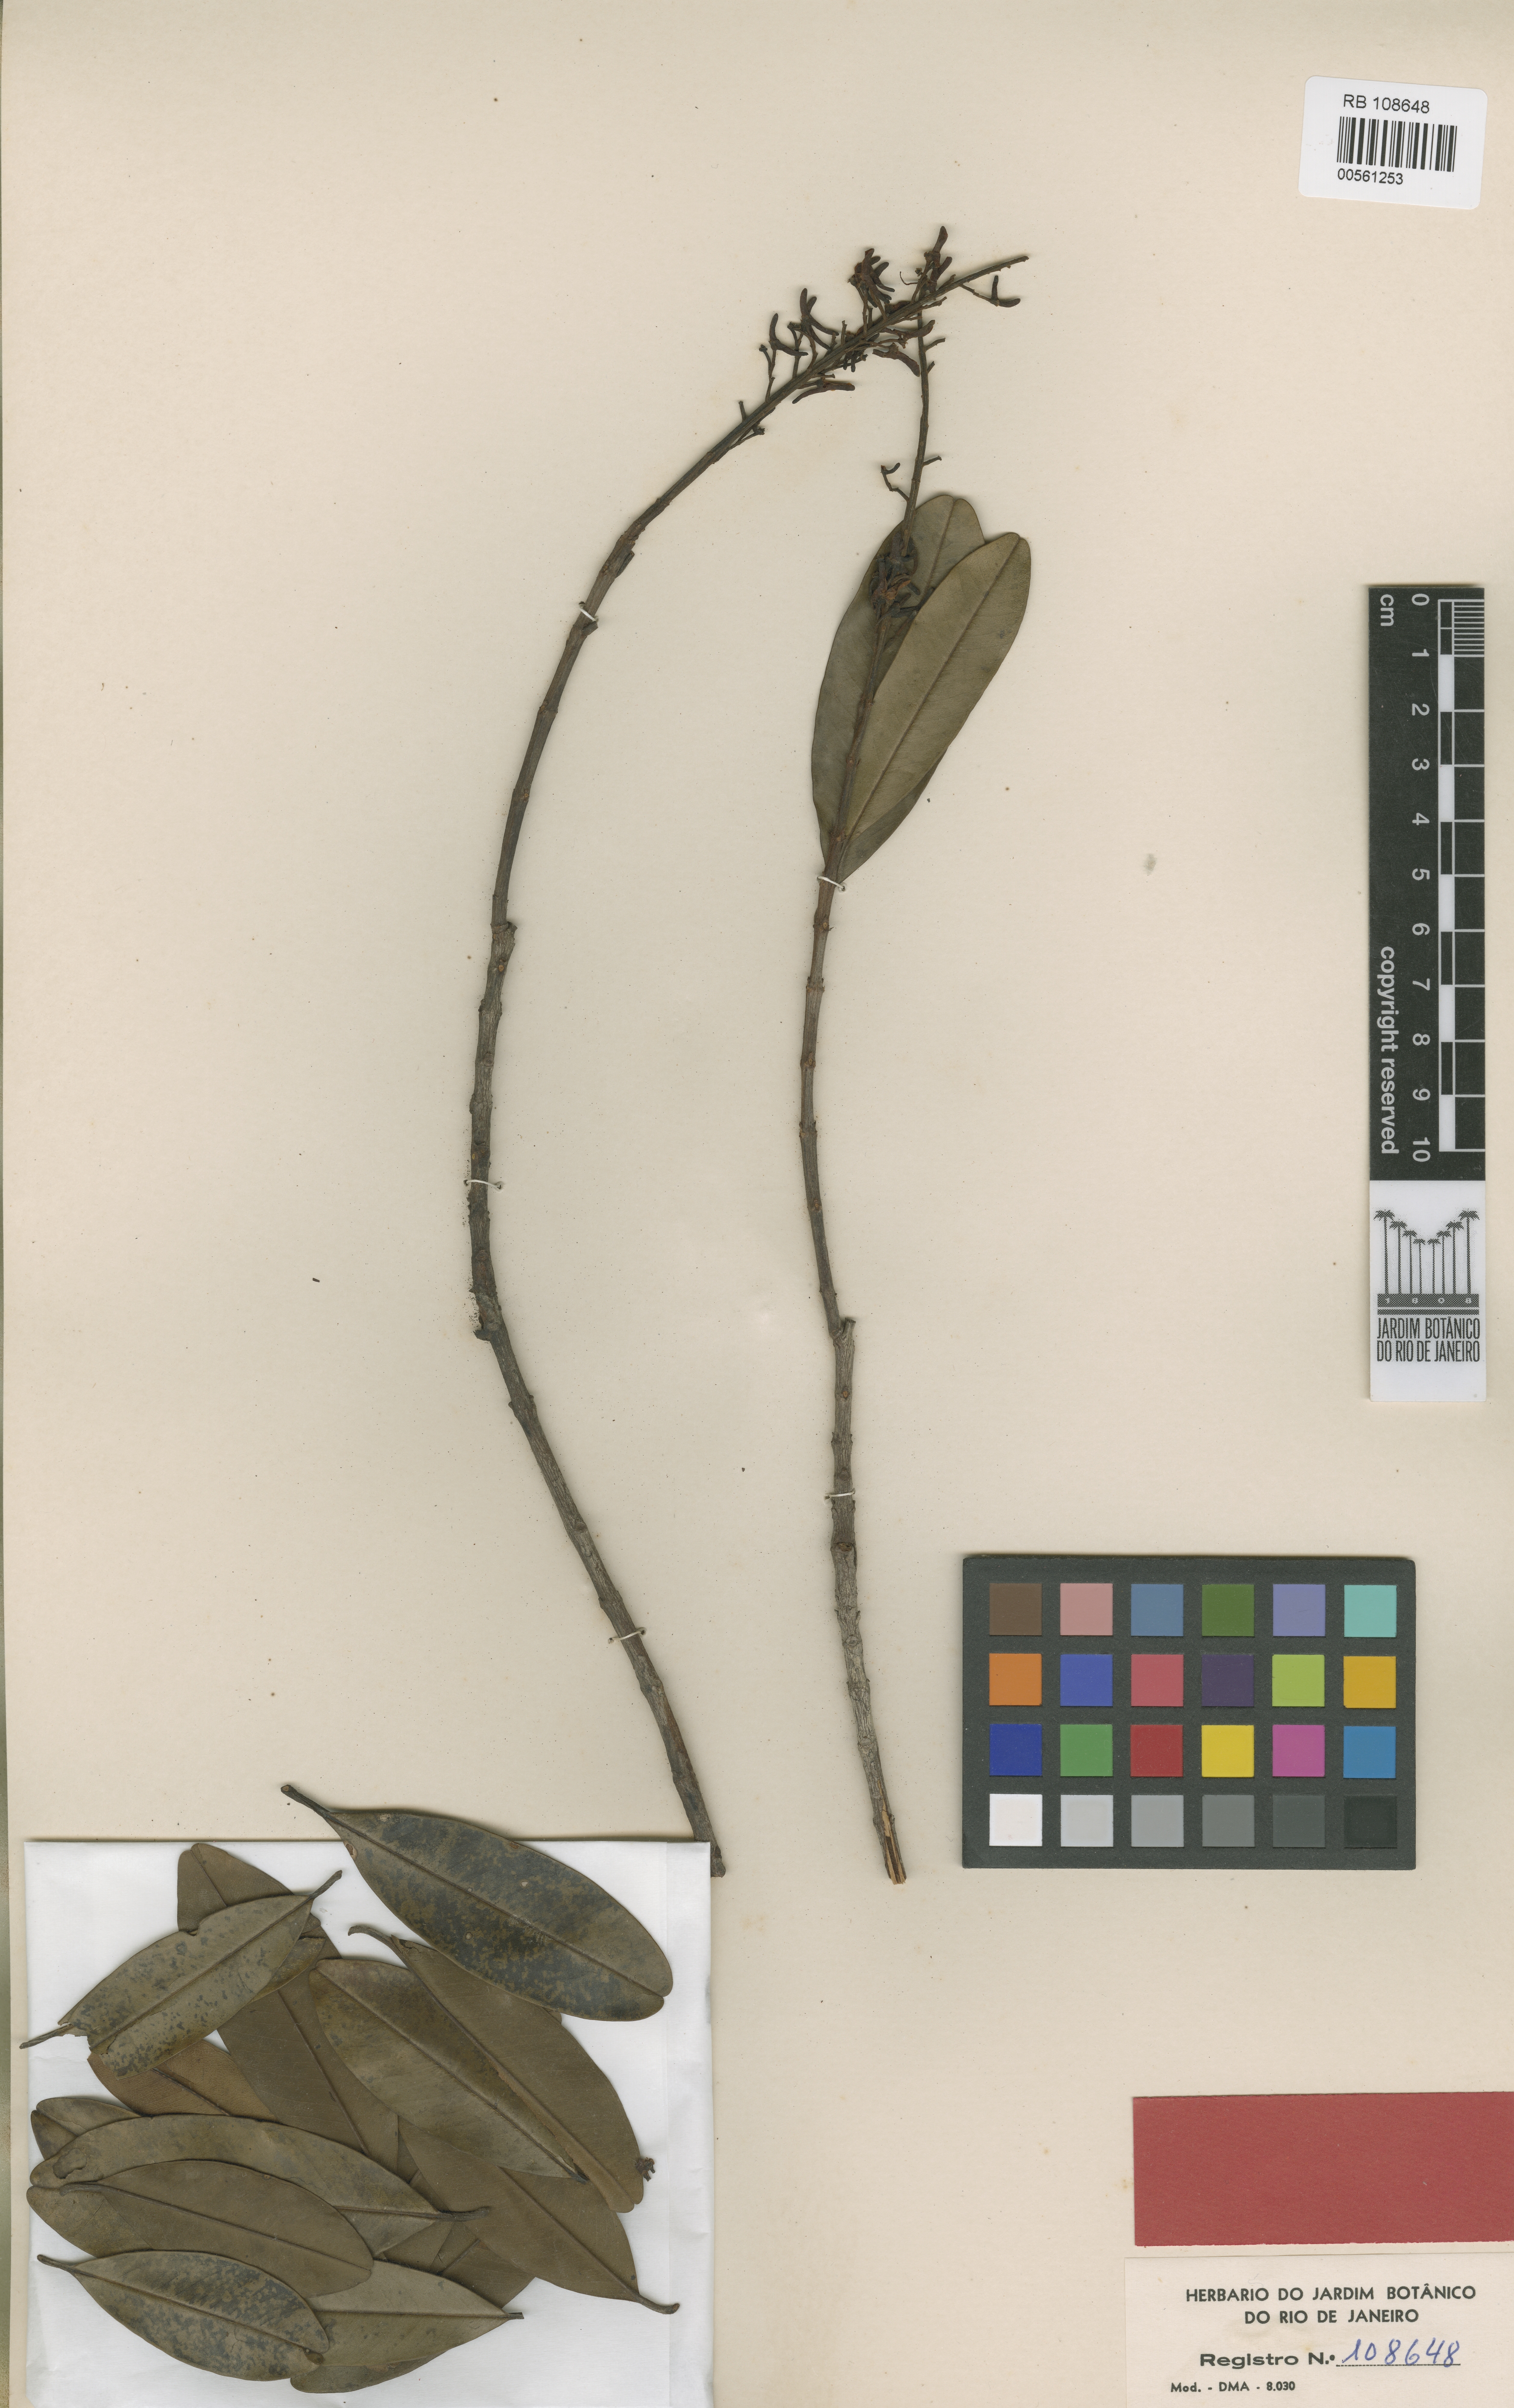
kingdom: Plantae
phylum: Tracheophyta
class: Magnoliopsida
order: Myrtales
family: Vochysiaceae
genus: Vochysia
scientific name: Vochysia angustifolia
